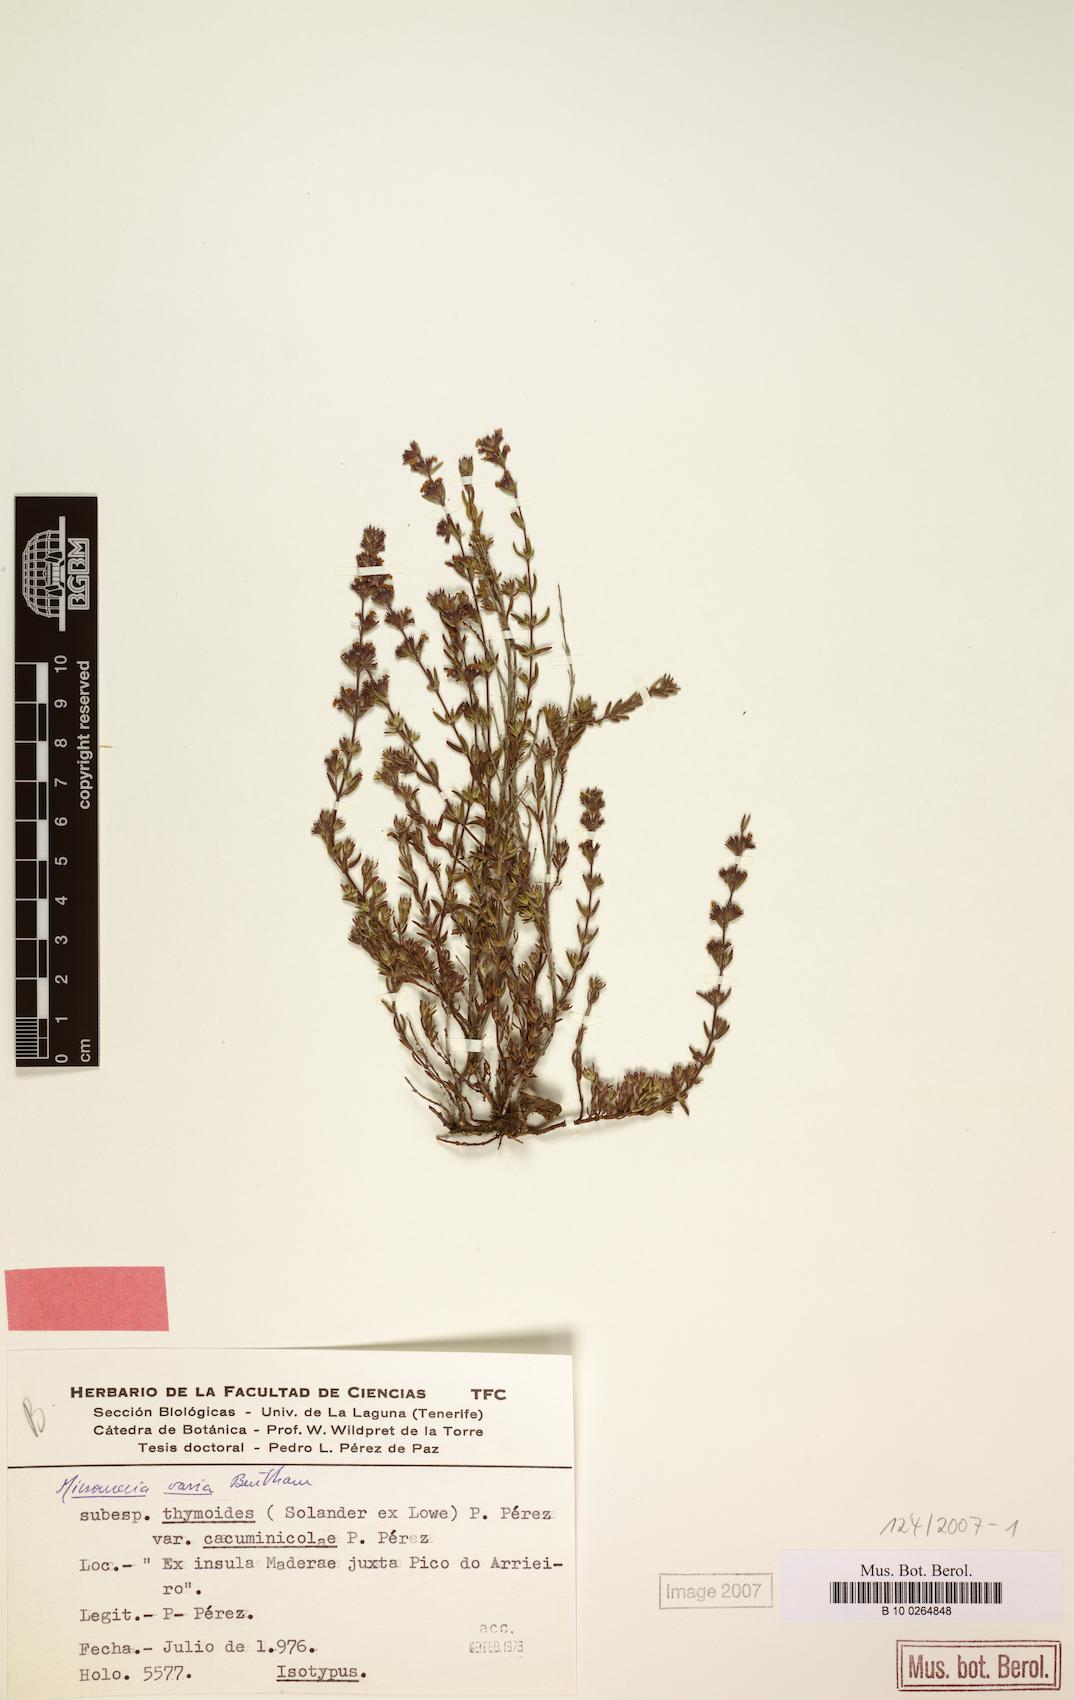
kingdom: Plantae
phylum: Tracheophyta
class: Magnoliopsida
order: Lamiales
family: Lamiaceae
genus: Micromeria
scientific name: Micromeria maderensis
